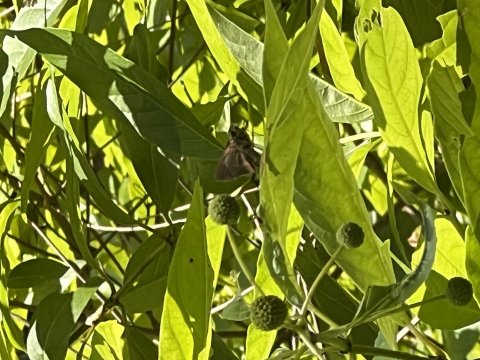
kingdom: Animalia
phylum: Arthropoda
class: Insecta
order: Lepidoptera
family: Hesperiidae
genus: Euphyes
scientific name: Euphyes vestris
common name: Dun Skipper
